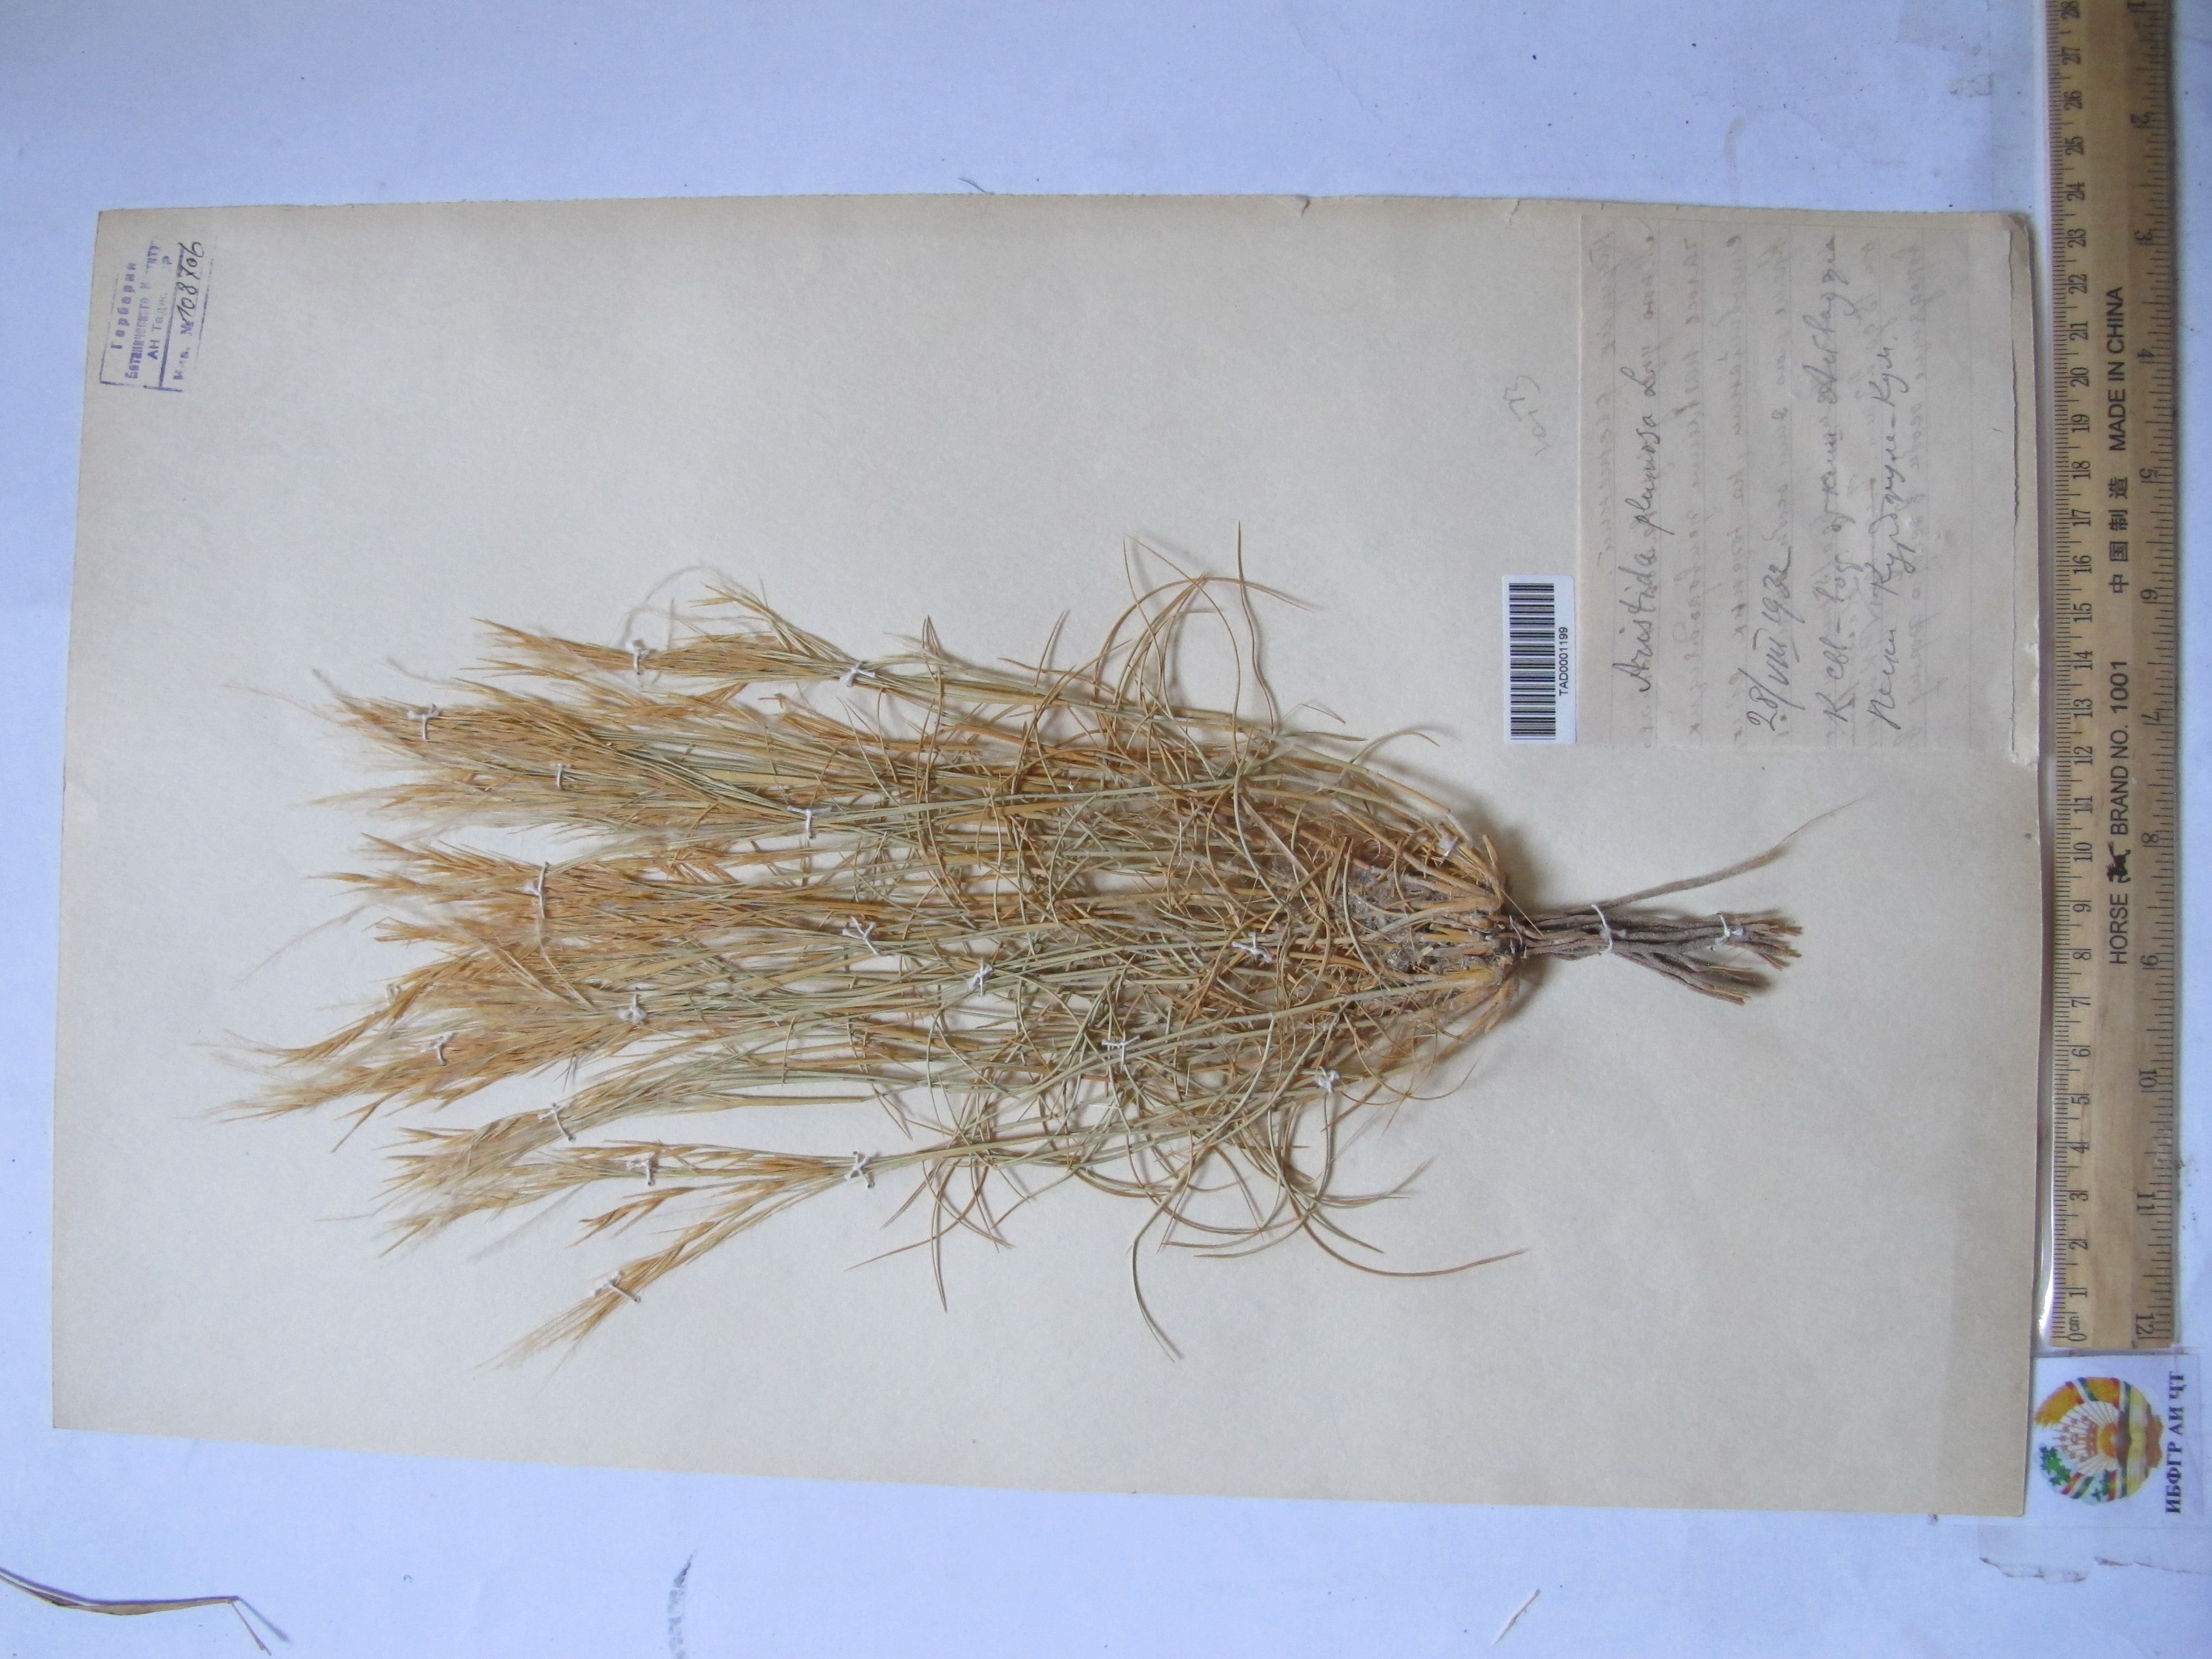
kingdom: Plantae
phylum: Tracheophyta
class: Liliopsida
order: Poales
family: Poaceae
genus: Stipagrostis
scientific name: Stipagrostis plumosa
